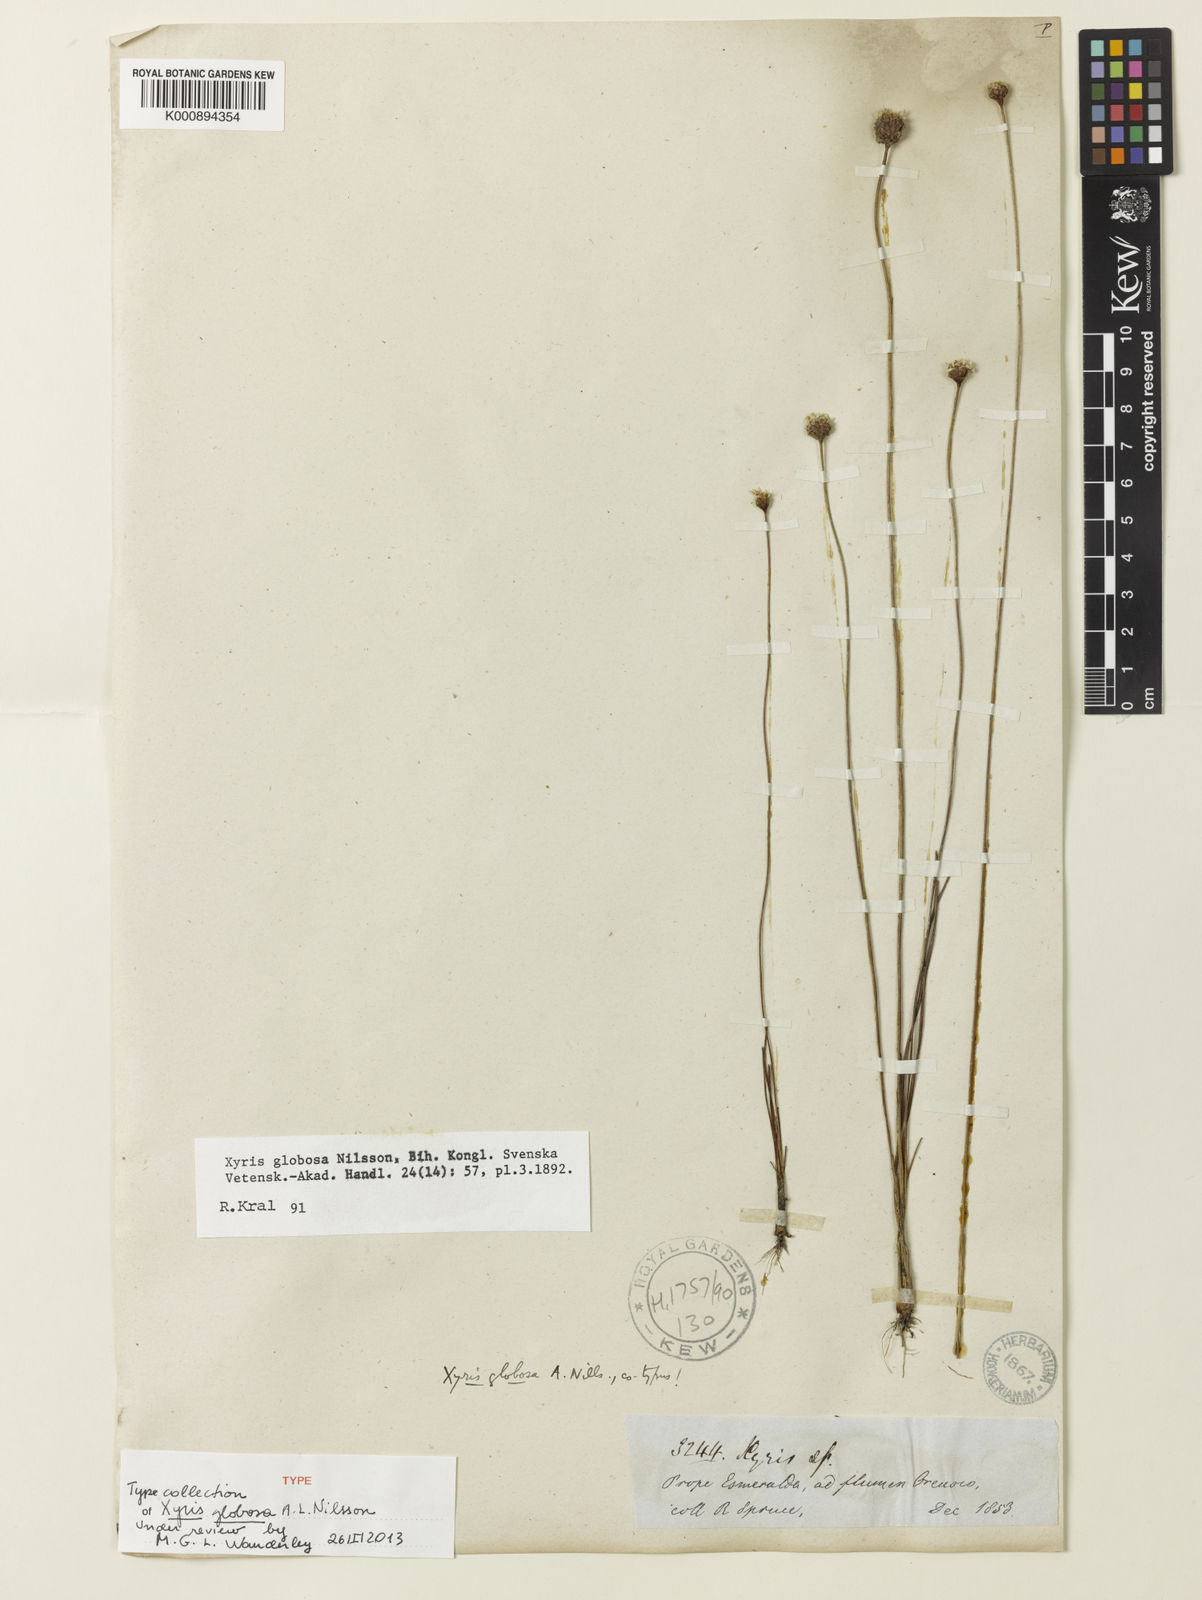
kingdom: Plantae
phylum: Tracheophyta
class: Liliopsida
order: Poales
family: Xyridaceae
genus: Xyris
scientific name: Xyris globosa
